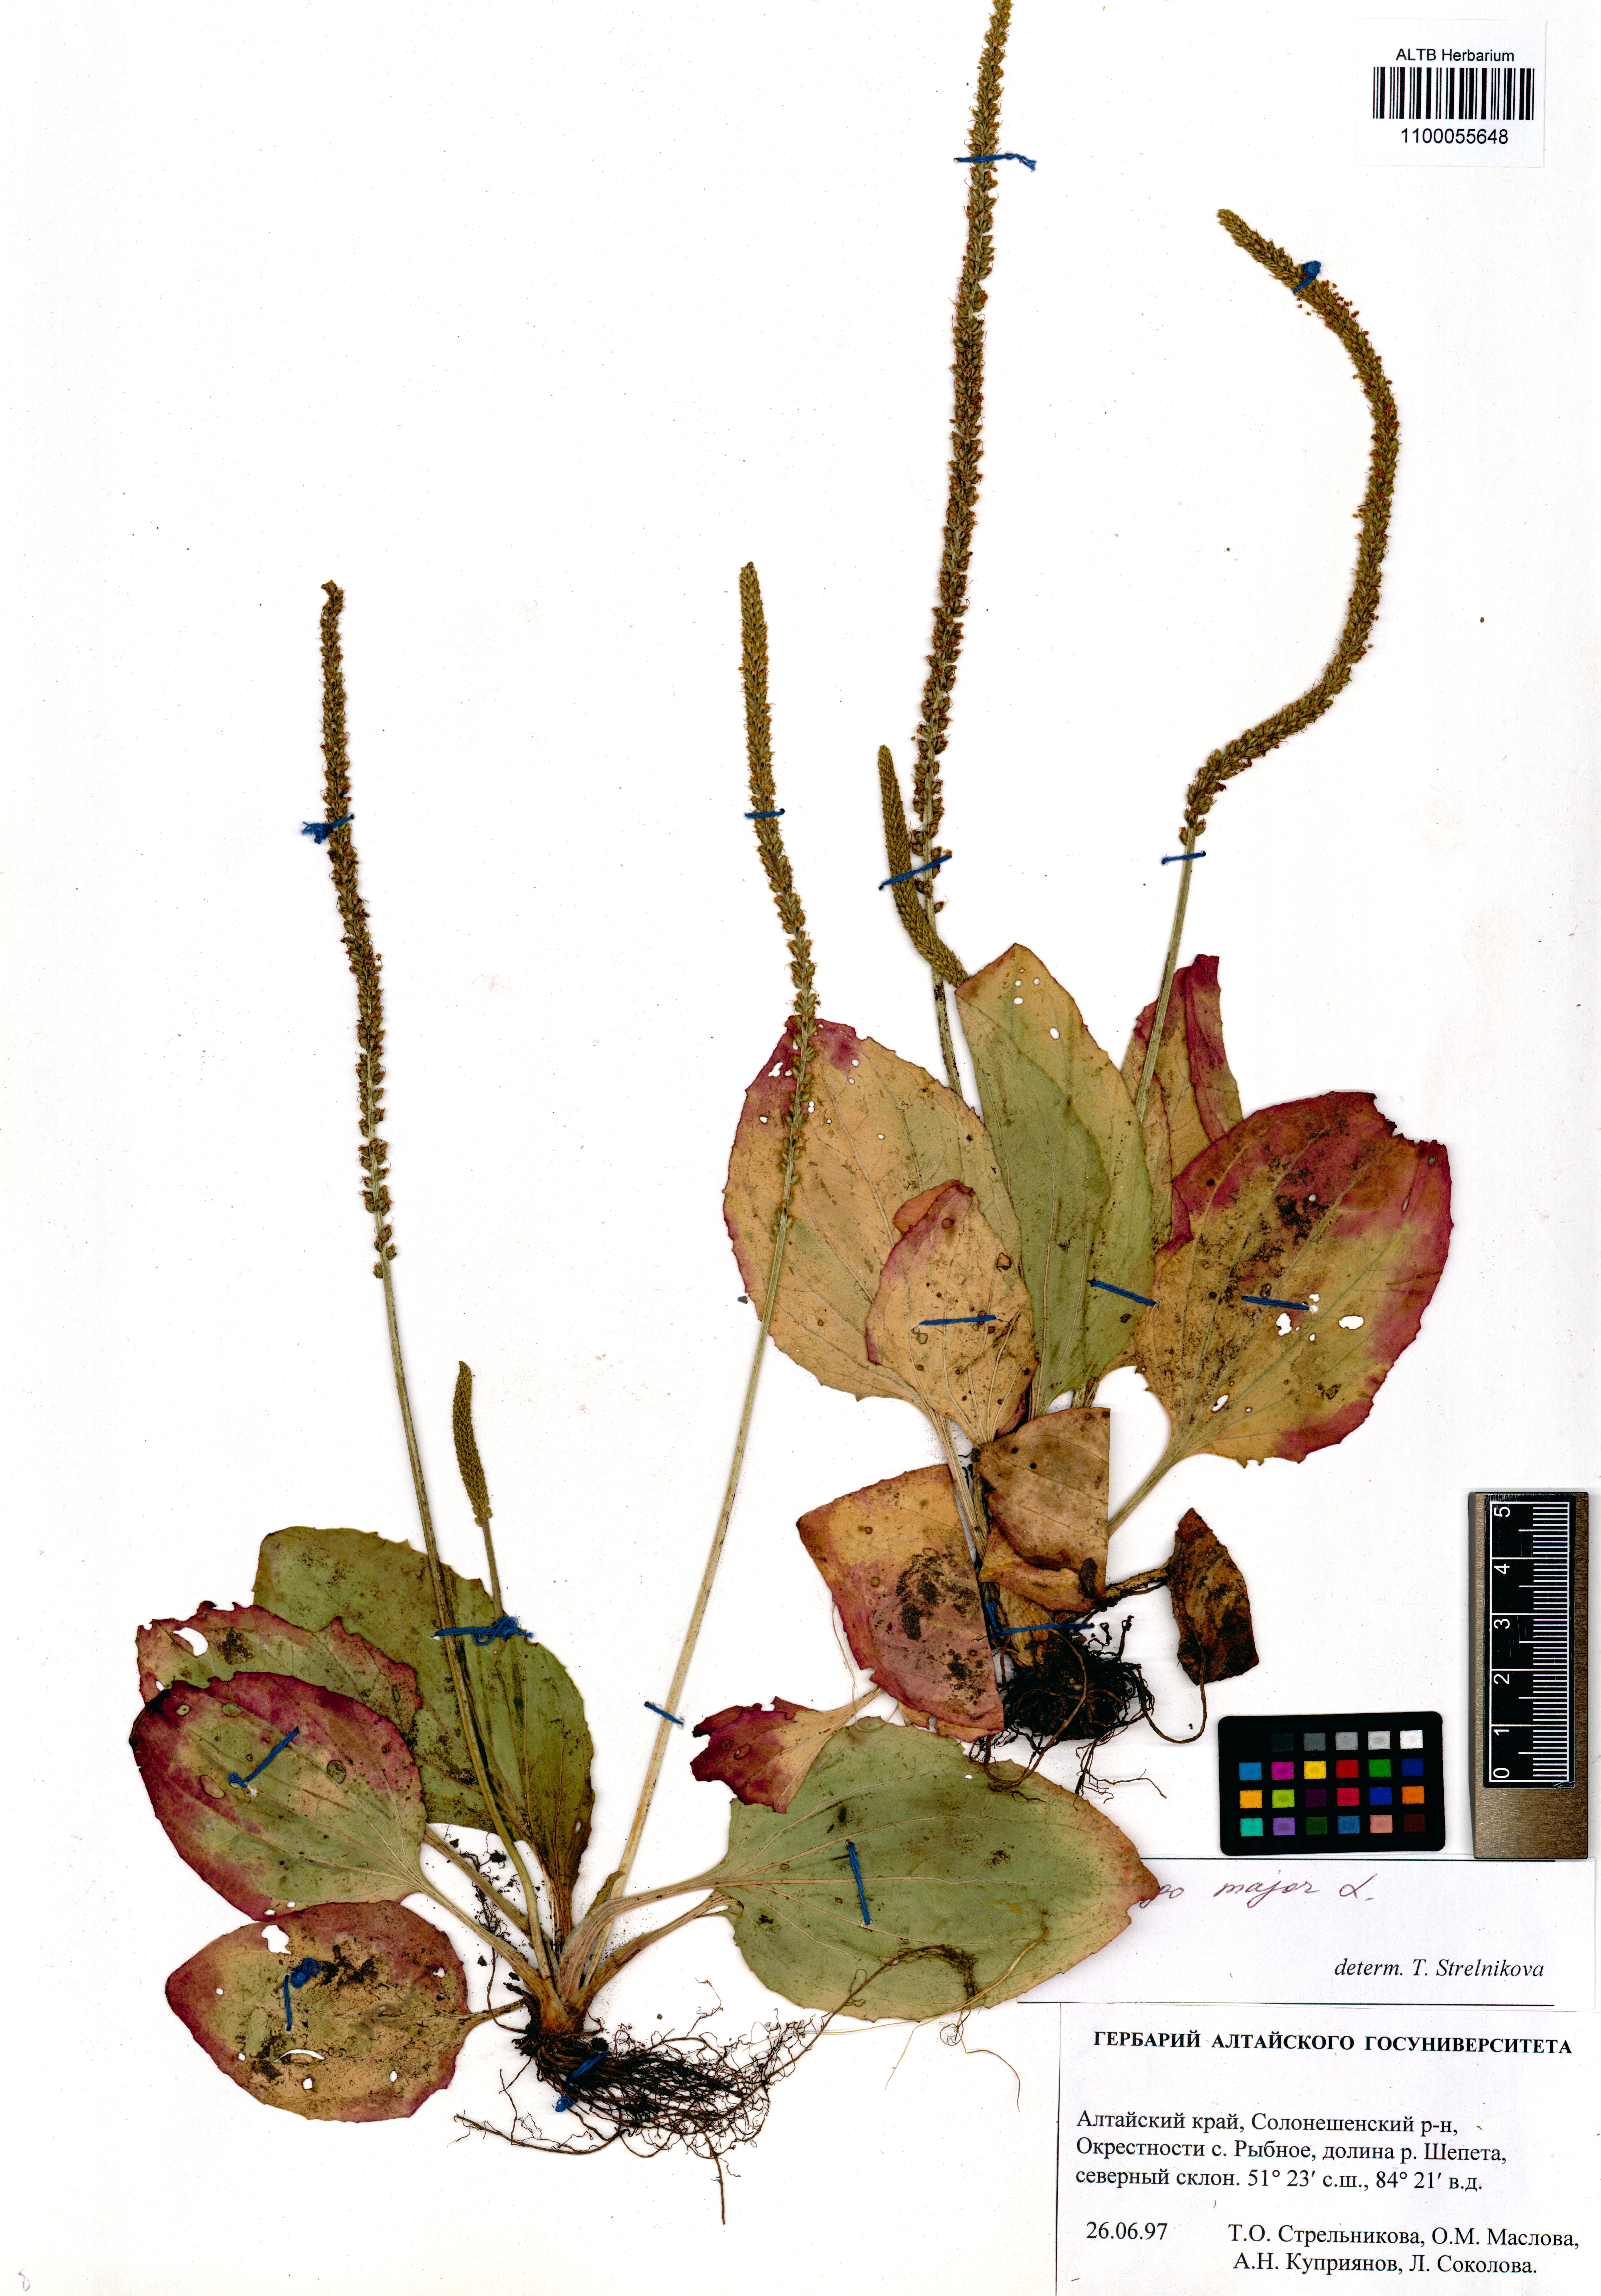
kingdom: Plantae
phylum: Tracheophyta
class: Magnoliopsida
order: Lamiales
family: Plantaginaceae
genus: Plantago
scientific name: Plantago major
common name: Common plantain
